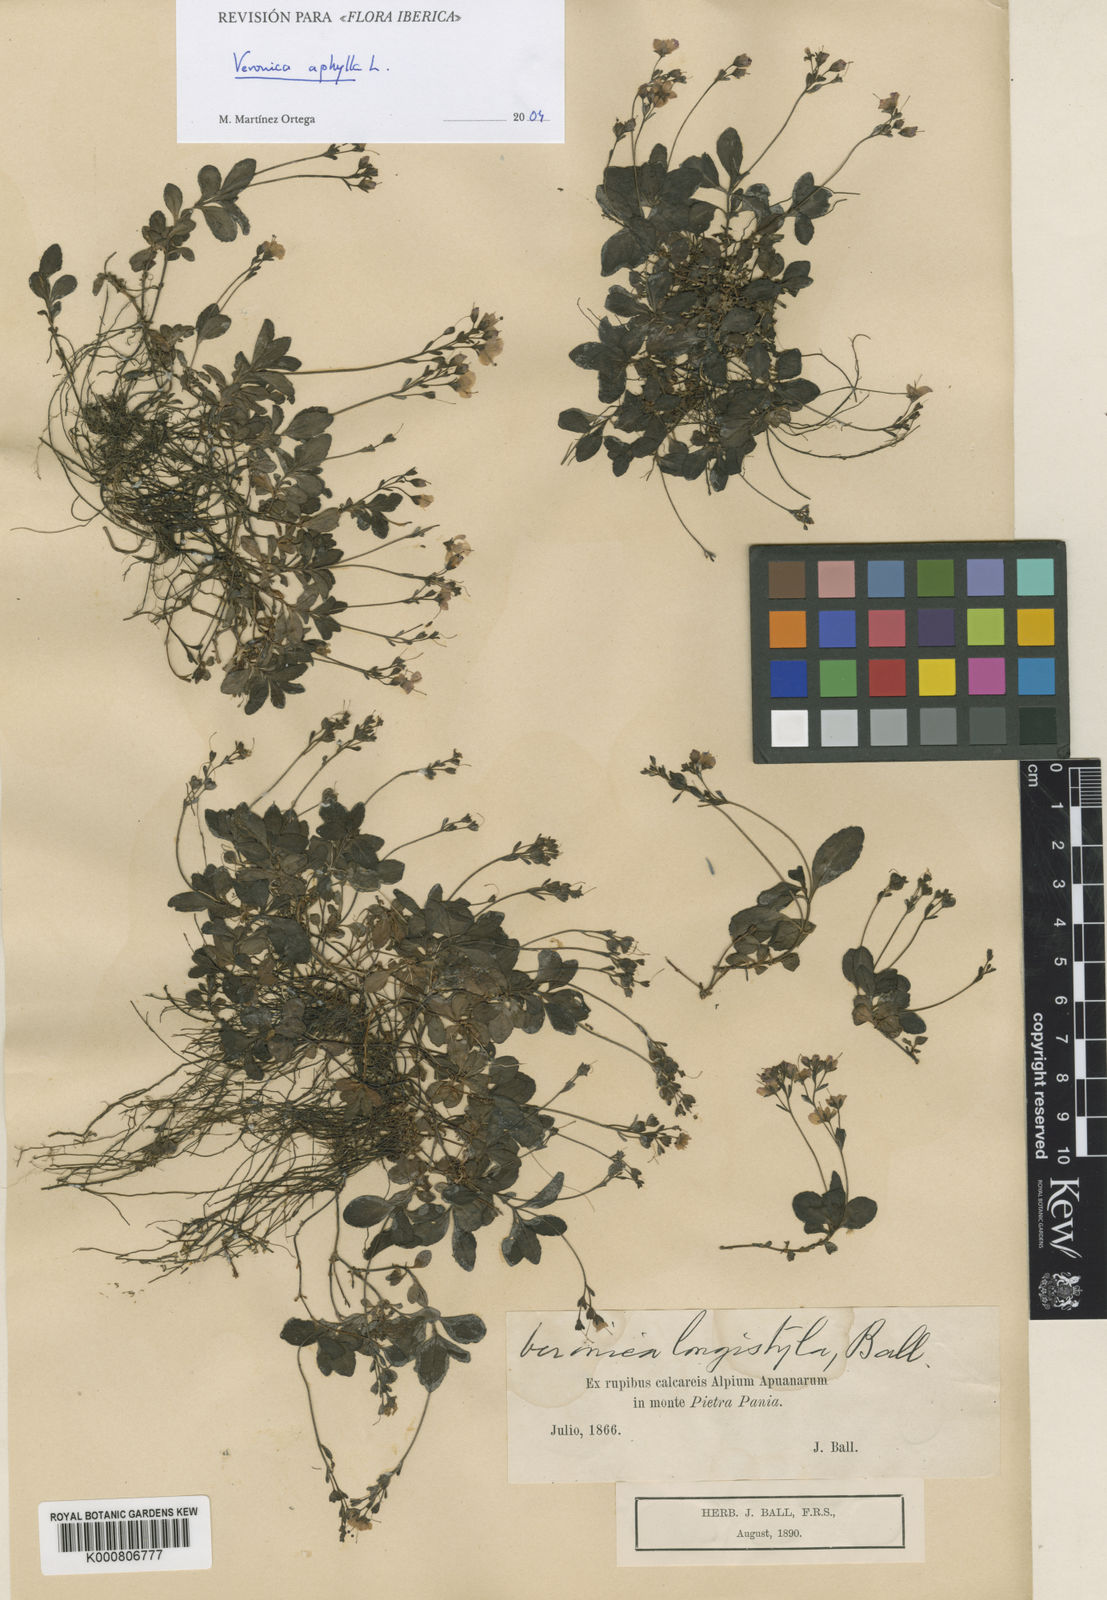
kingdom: Plantae
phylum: Tracheophyta
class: Magnoliopsida
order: Lamiales
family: Plantaginaceae
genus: Veronica
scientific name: Veronica aphylla
